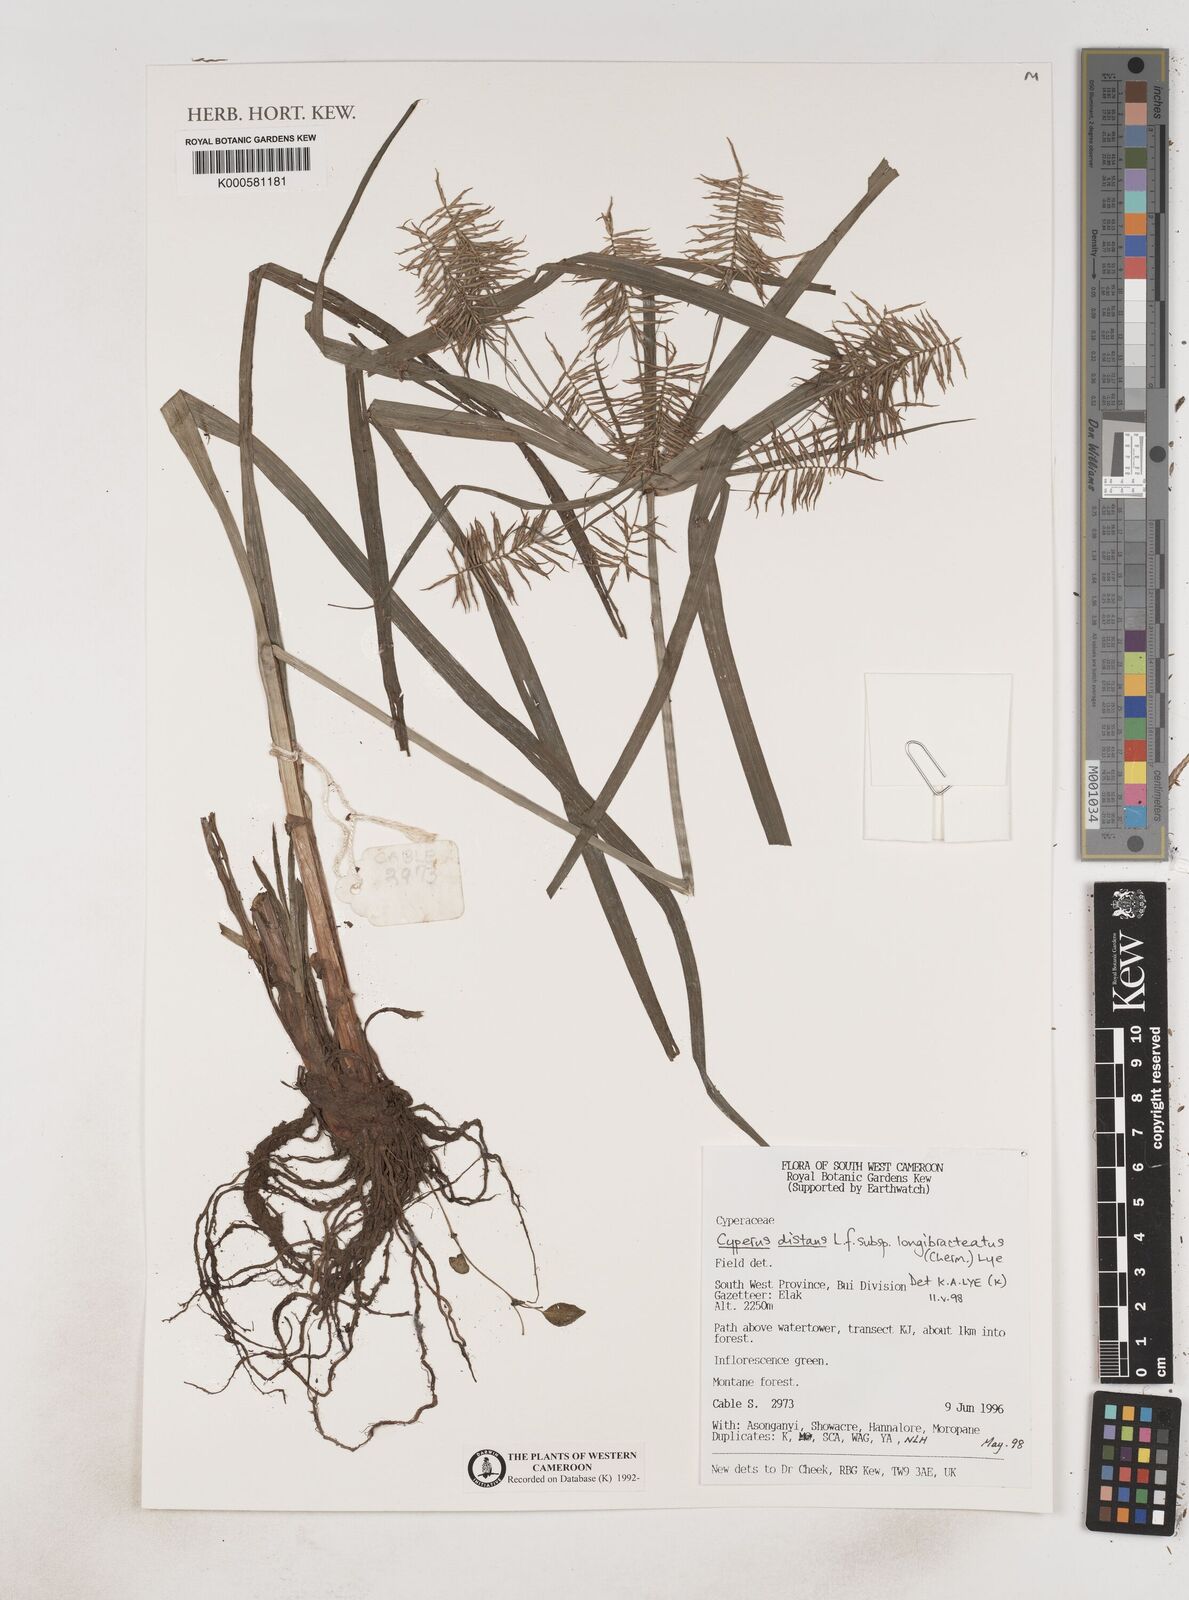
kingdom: Plantae
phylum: Tracheophyta
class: Liliopsida
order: Poales
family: Cyperaceae
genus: Cyperus
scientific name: Cyperus distans
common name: Slender cyperus
